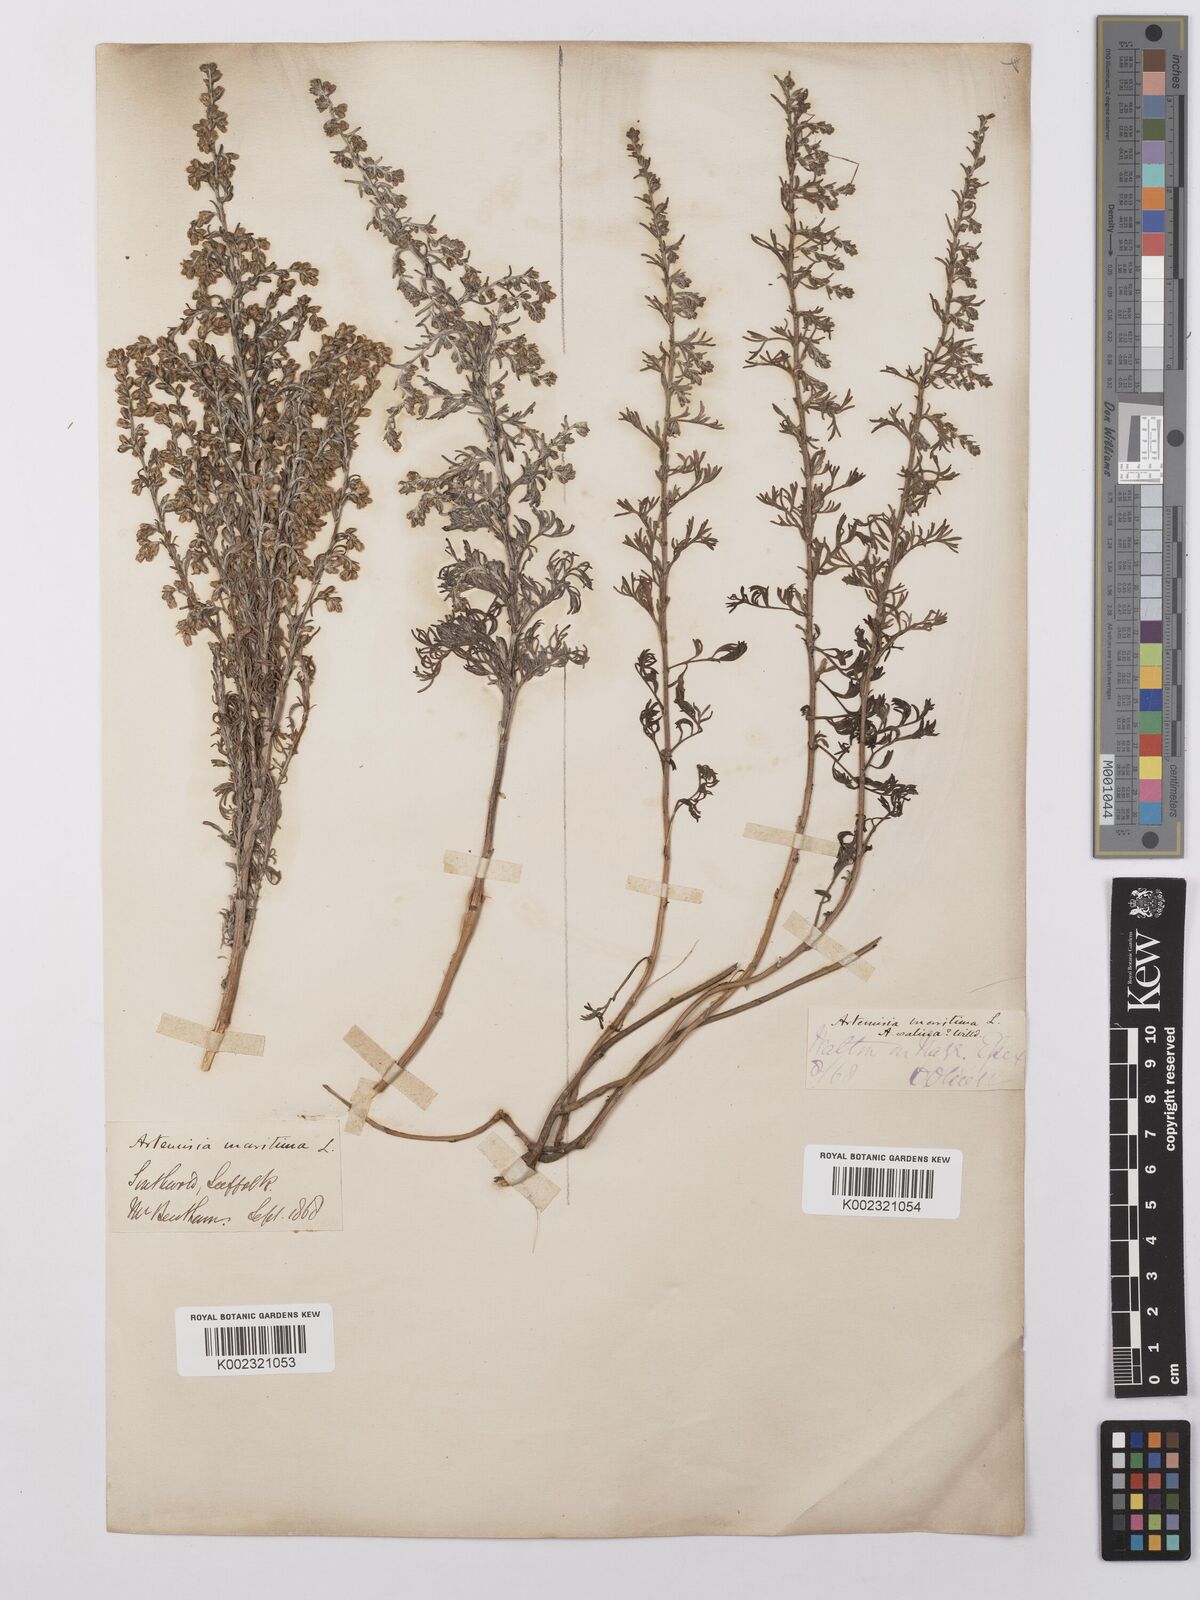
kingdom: Plantae
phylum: Tracheophyta
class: Magnoliopsida
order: Asterales
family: Asteraceae
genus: Artemisia
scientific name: Artemisia maritima
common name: Wormseed
